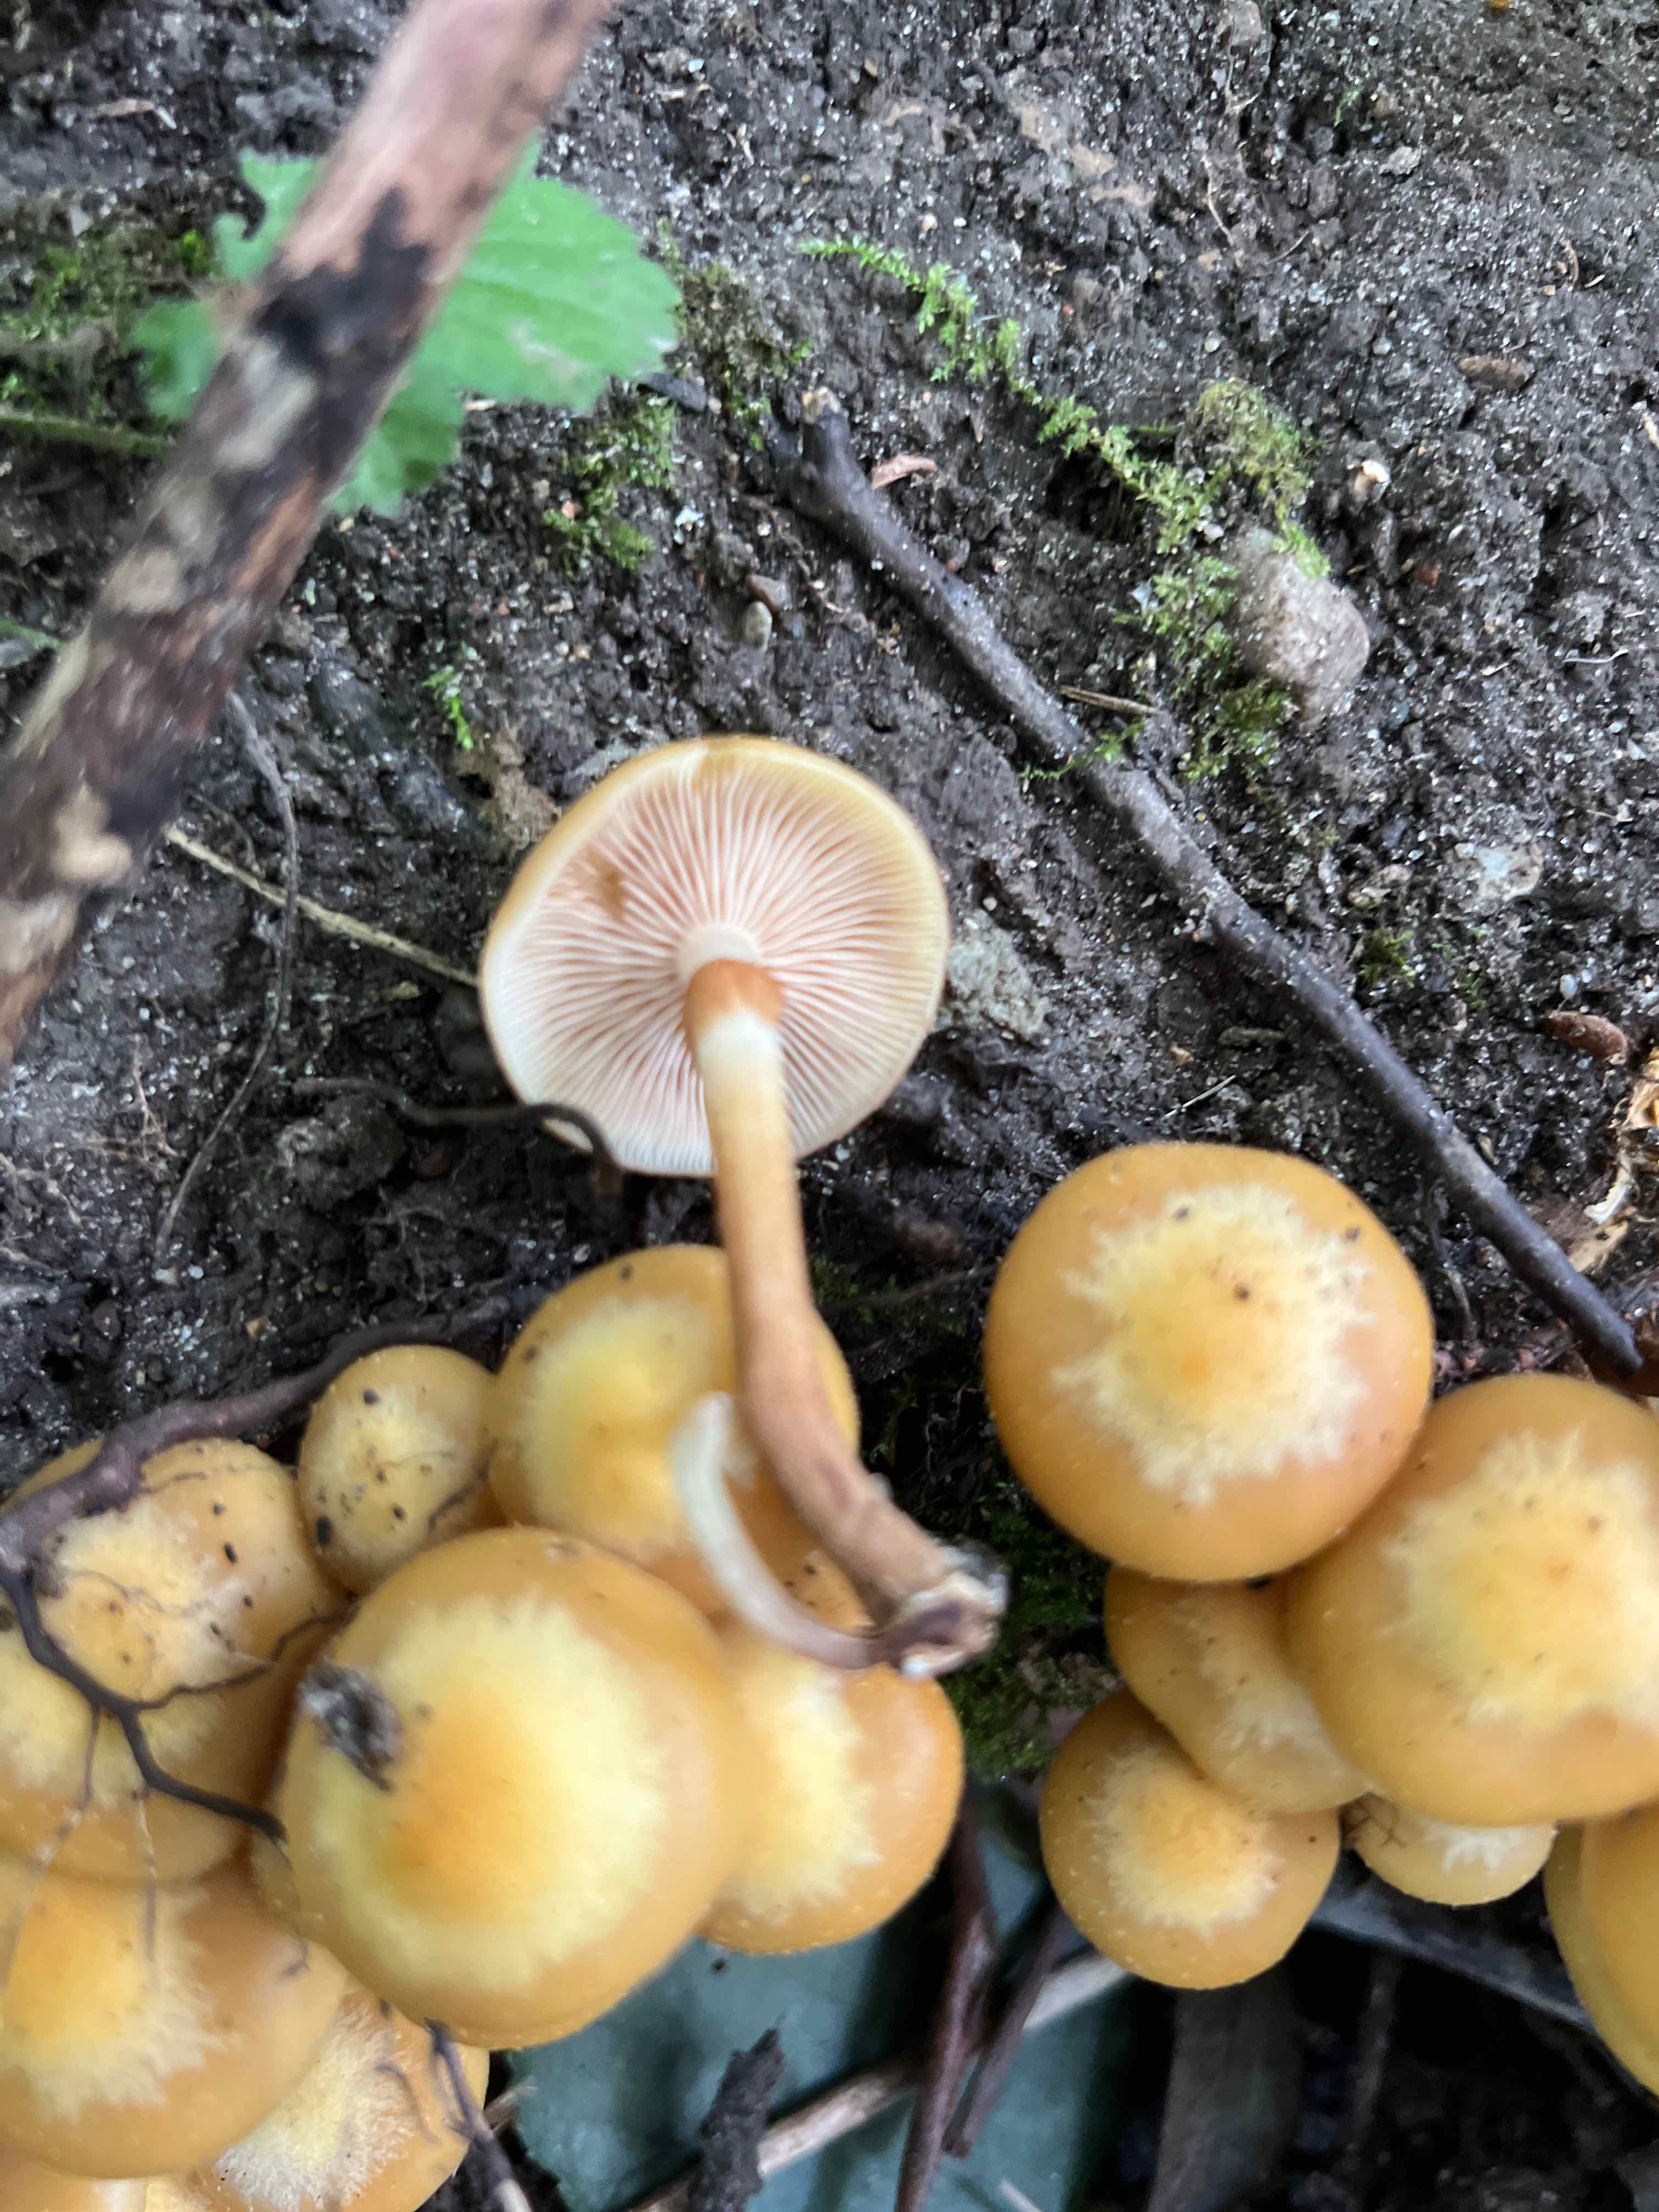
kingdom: Fungi
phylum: Basidiomycota
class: Agaricomycetes
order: Agaricales
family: Strophariaceae
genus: Kuehneromyces
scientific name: Kuehneromyces mutabilis
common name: foranderlig skælhat
